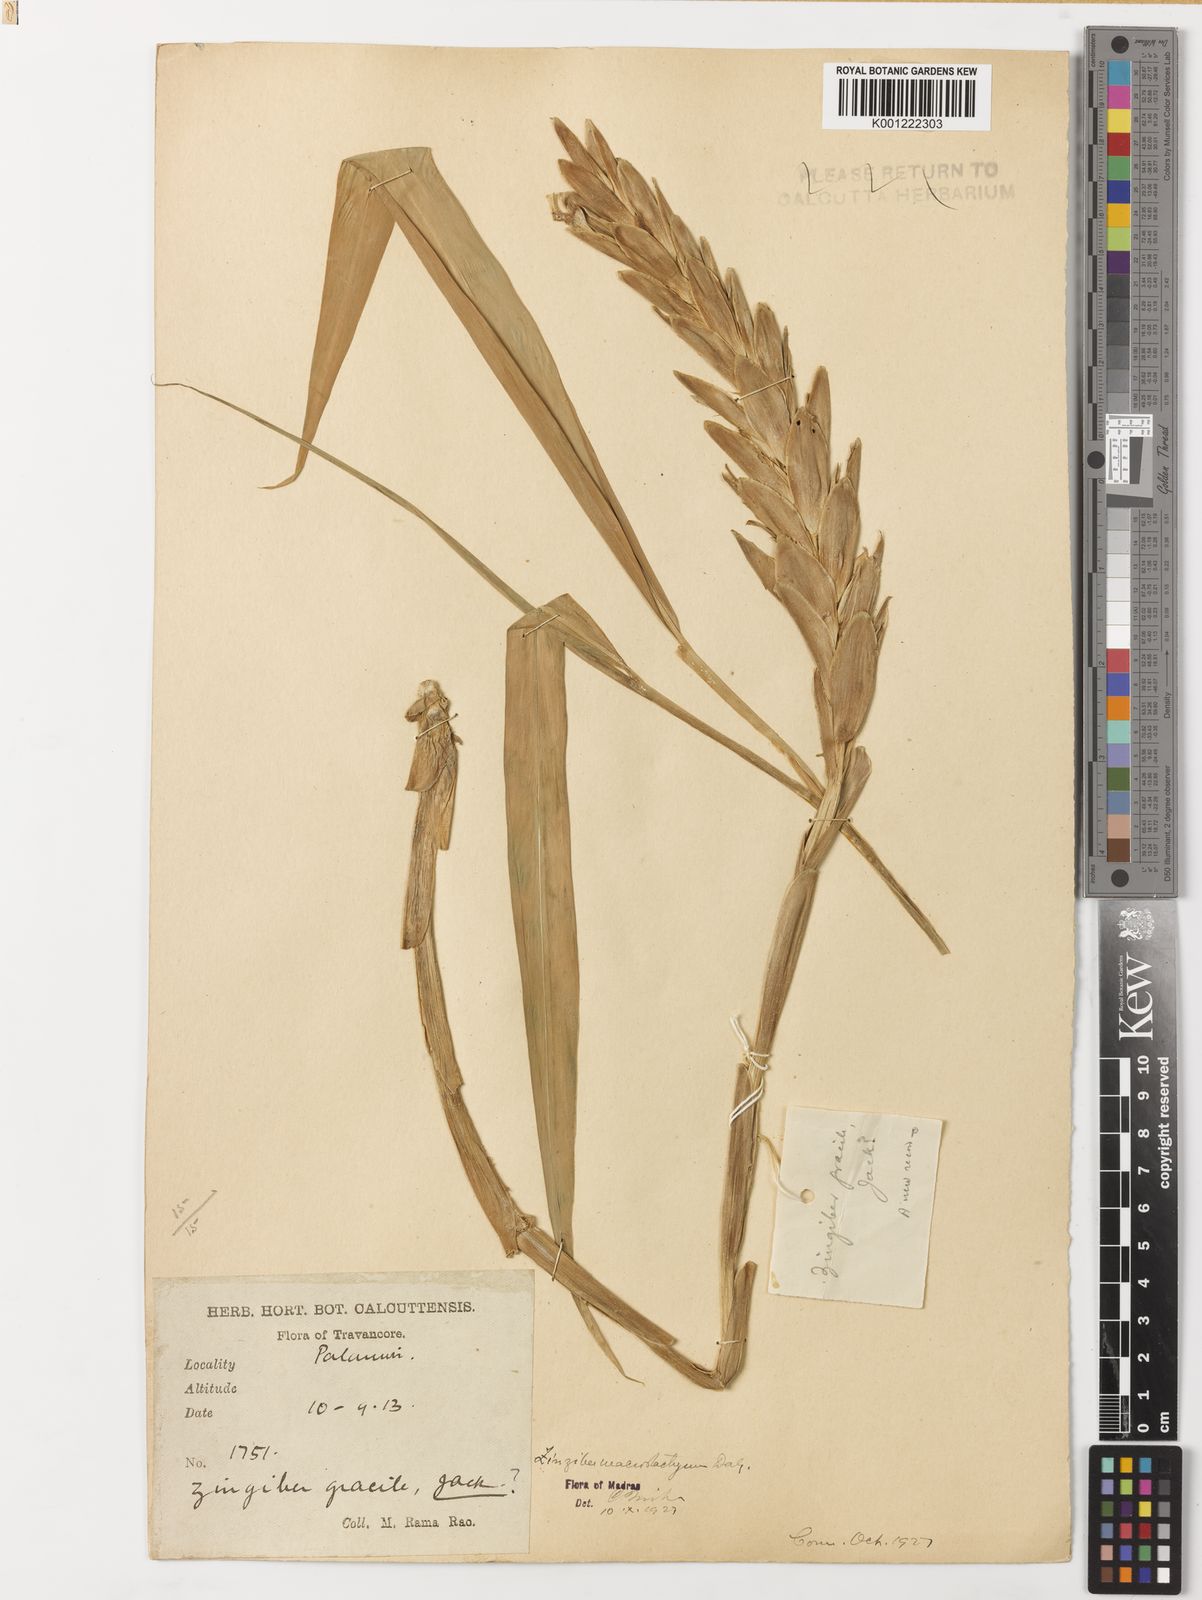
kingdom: Plantae
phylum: Tracheophyta
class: Liliopsida
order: Zingiberales
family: Zingiberaceae
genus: Zingiber
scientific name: Zingiber neesanum
